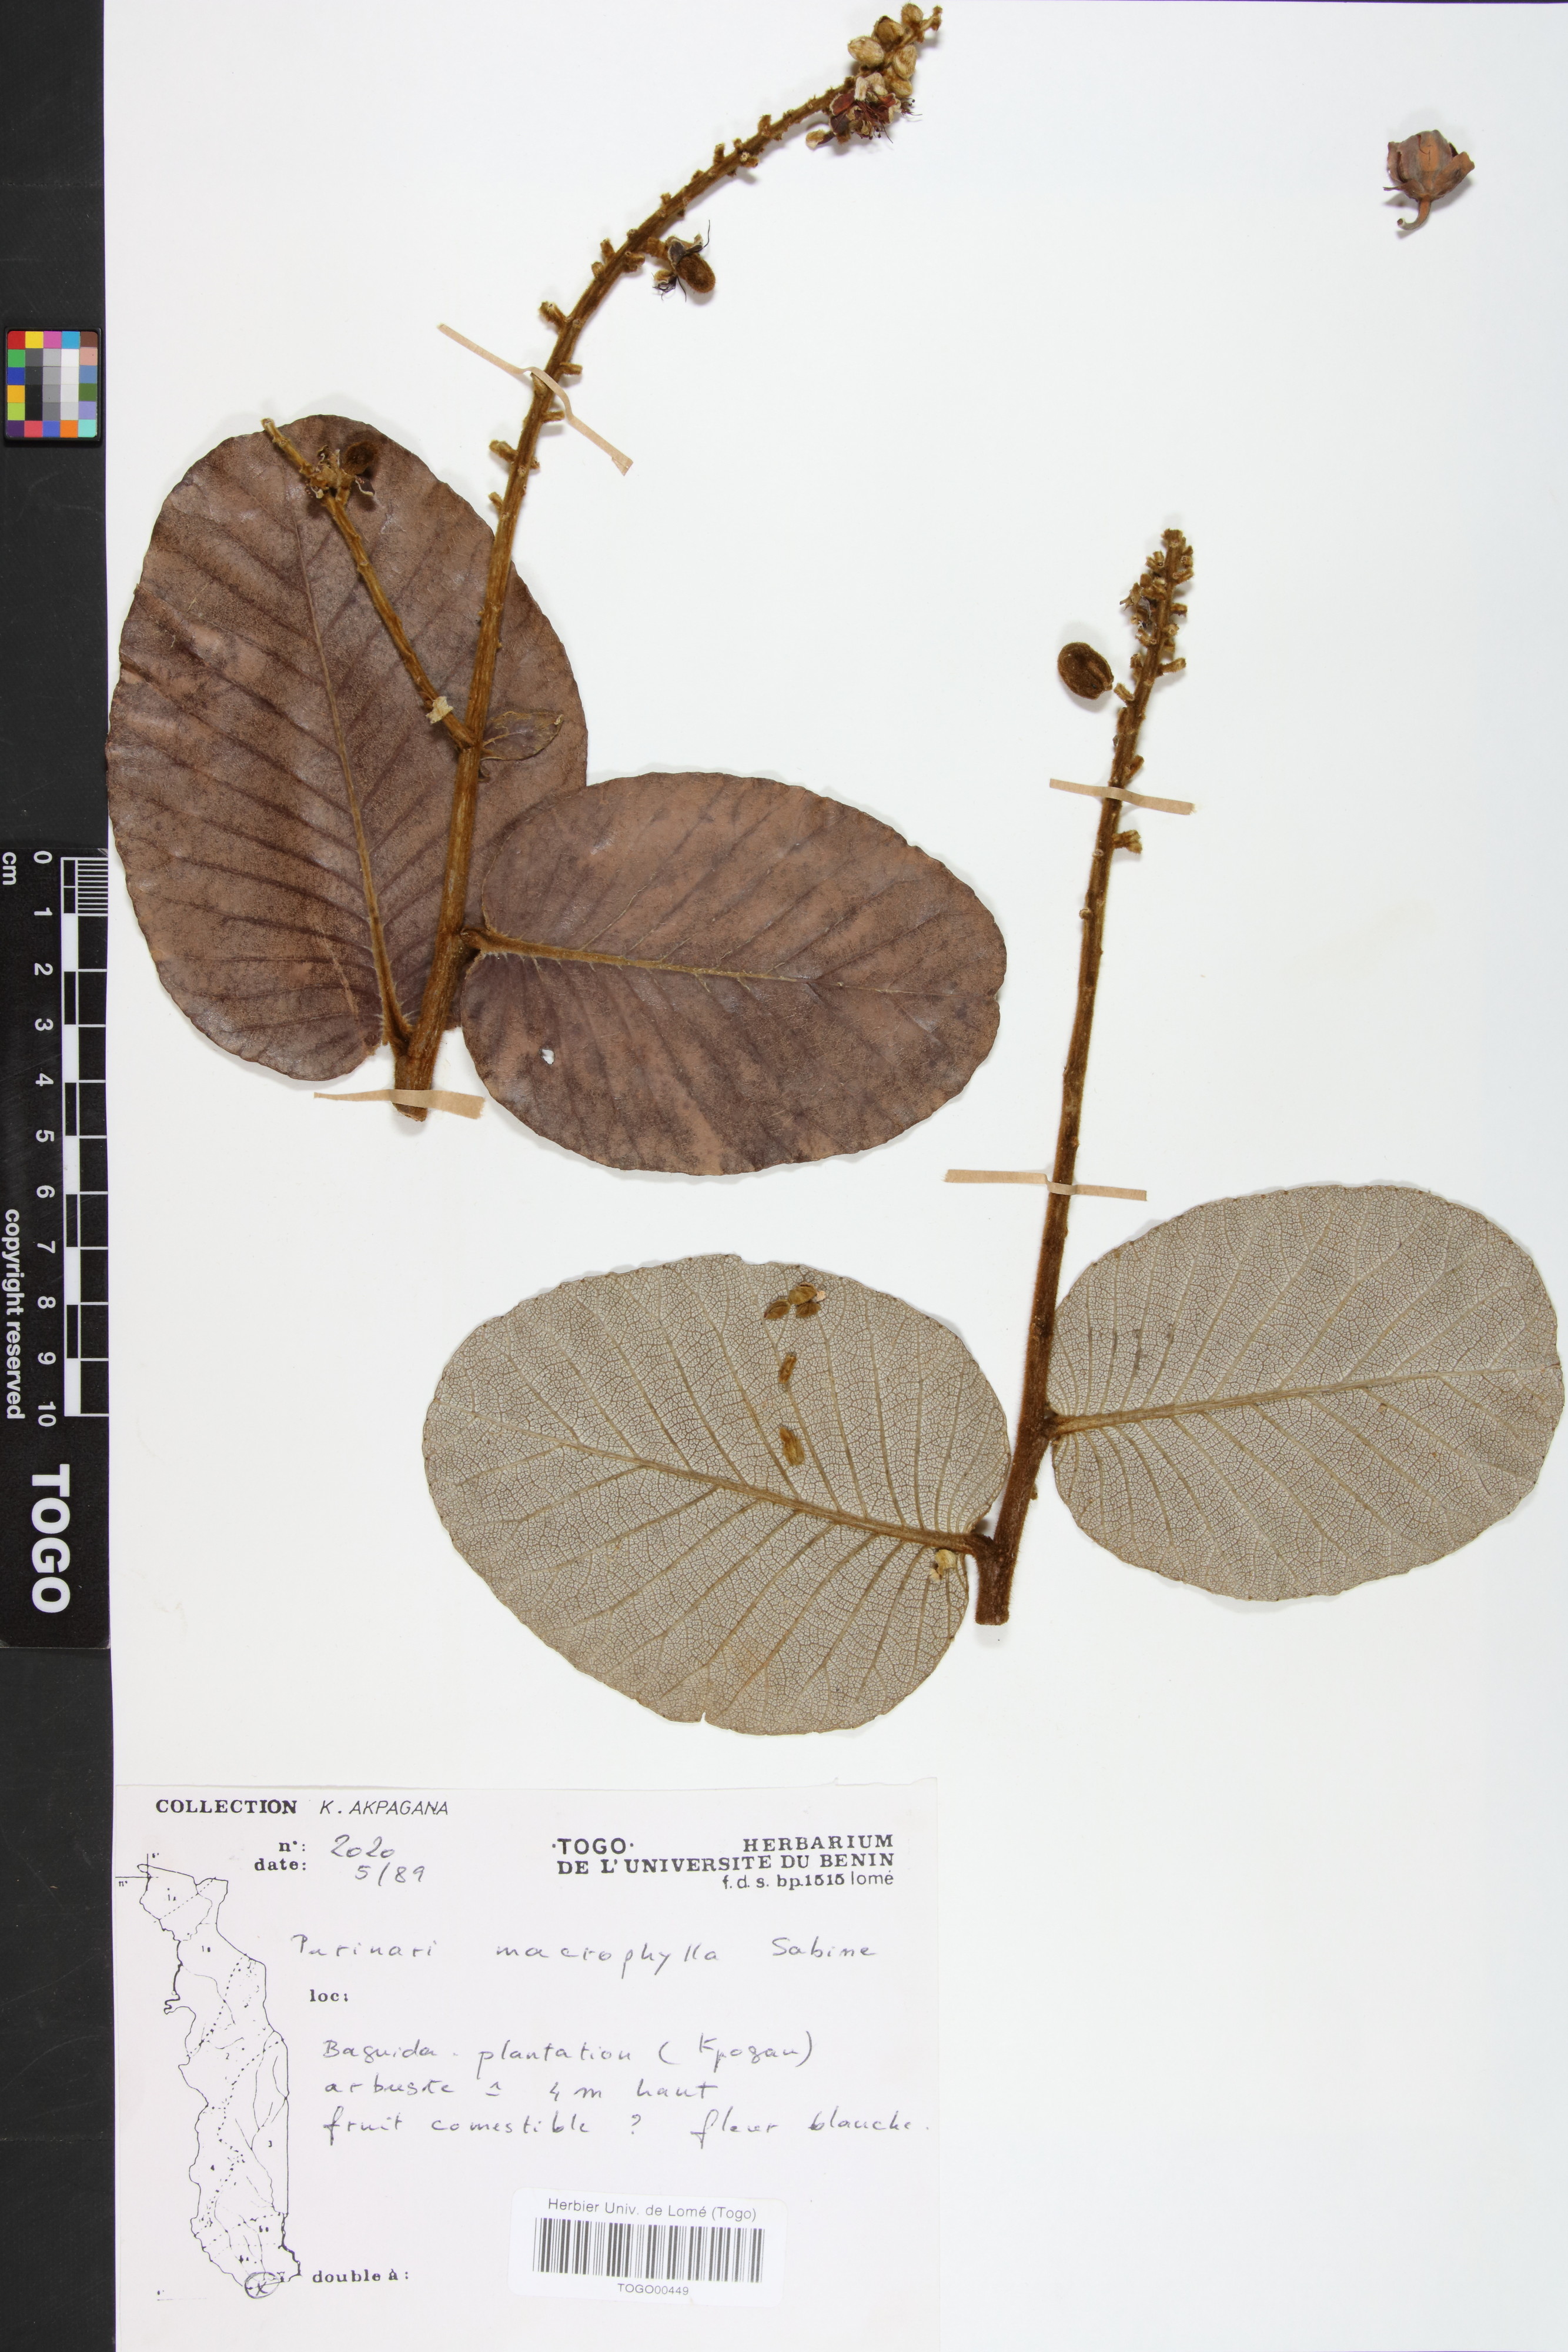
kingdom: Plantae
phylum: Tracheophyta
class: Magnoliopsida
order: Malpighiales
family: Chrysobalanaceae
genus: Neocarya
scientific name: Neocarya macrophylla
